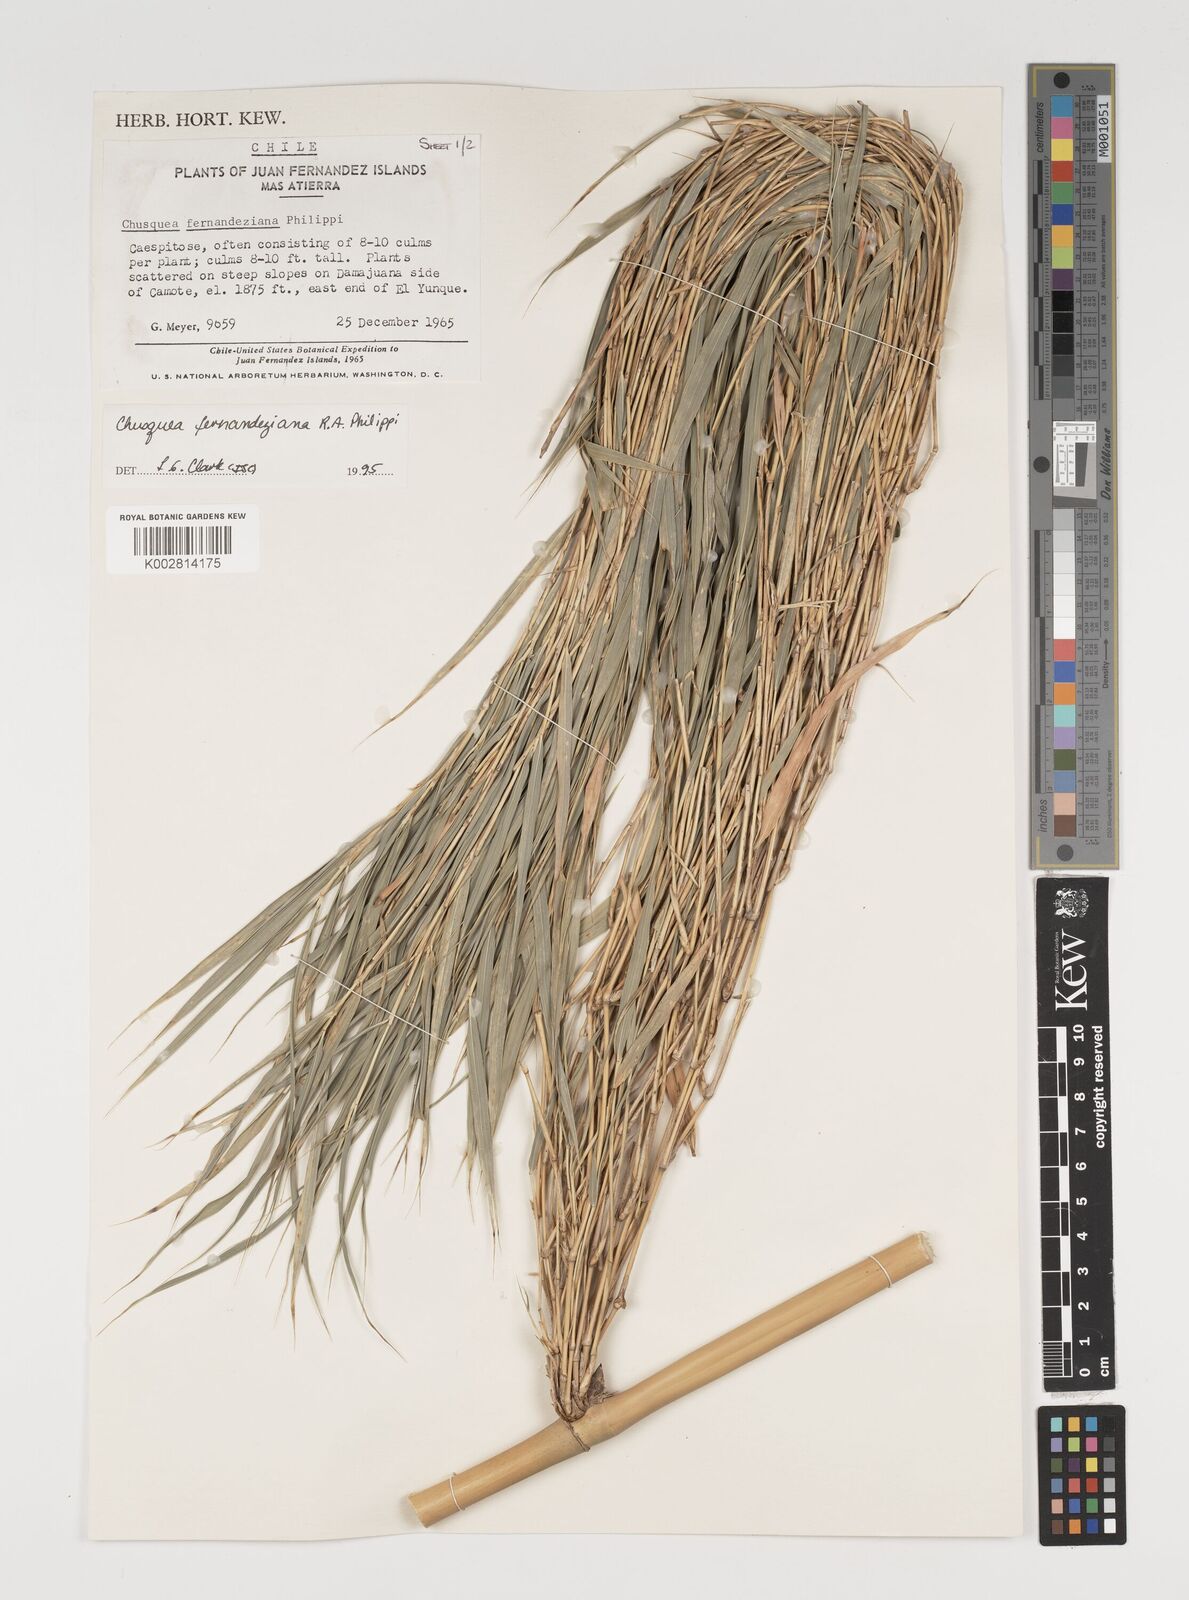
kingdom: Plantae
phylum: Tracheophyta
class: Liliopsida
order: Poales
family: Poaceae
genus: Chusquea
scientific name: Chusquea ligulata
